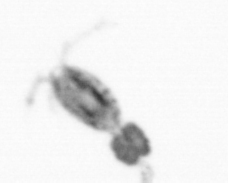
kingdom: Animalia
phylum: Arthropoda
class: Copepoda
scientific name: Copepoda
